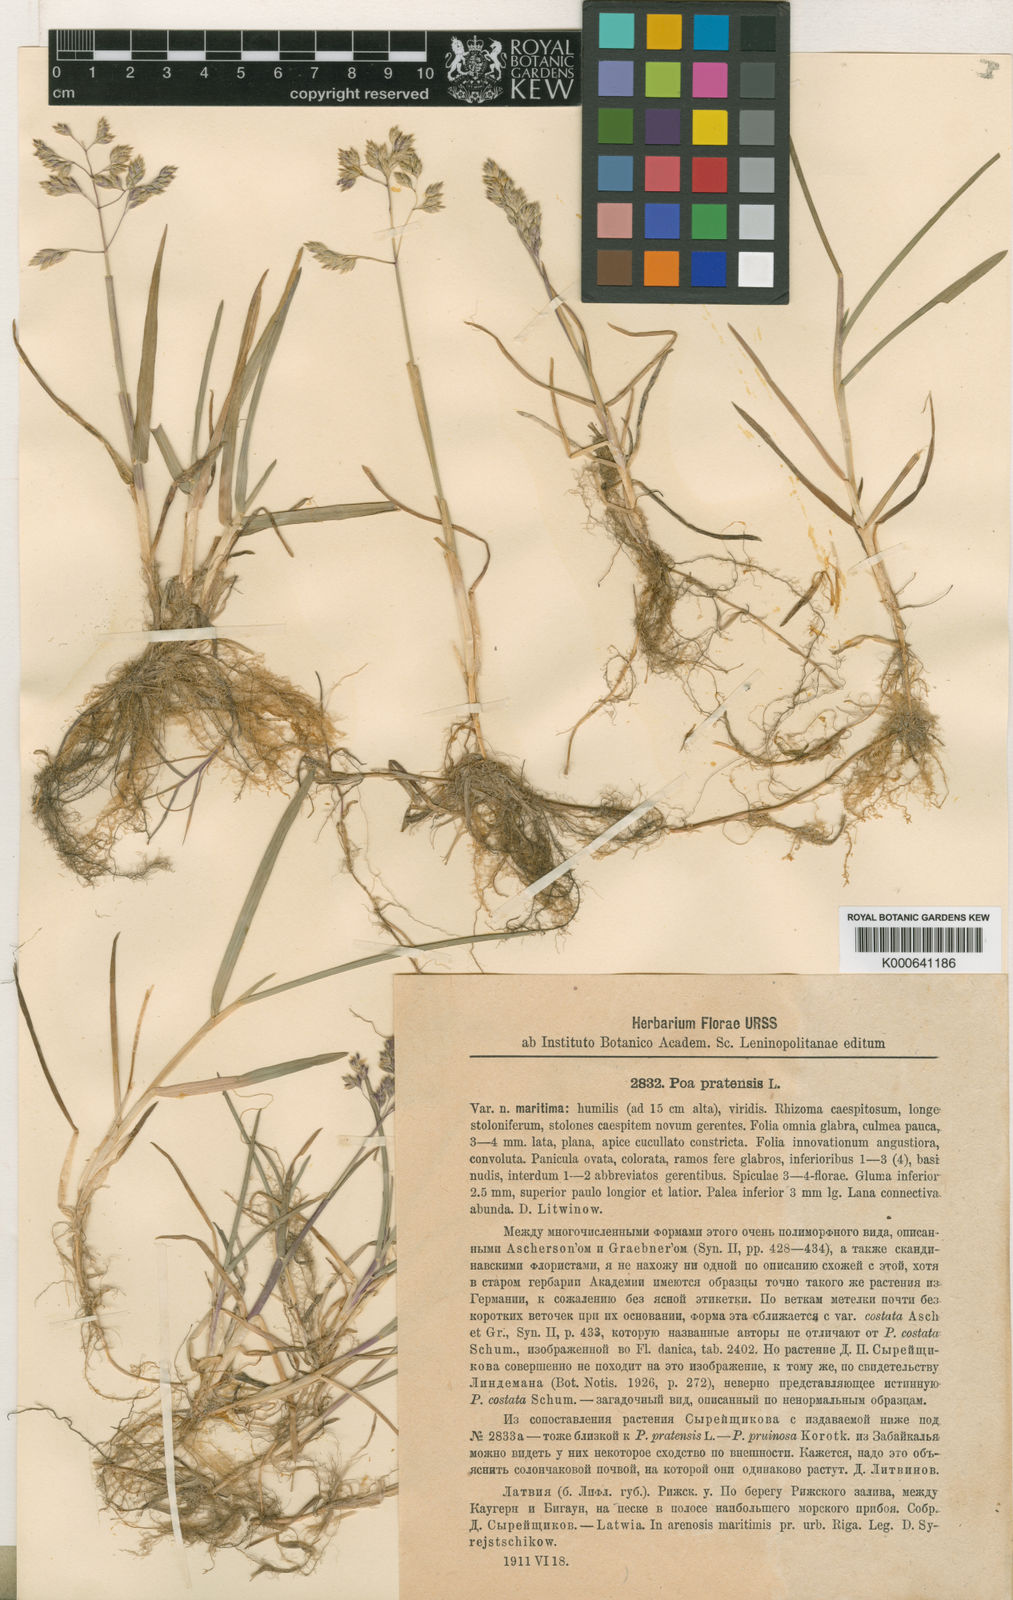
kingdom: Plantae
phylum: Tracheophyta
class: Liliopsida
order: Poales
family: Poaceae
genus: Poa
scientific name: Poa pratensis
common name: Kentucky bluegrass
